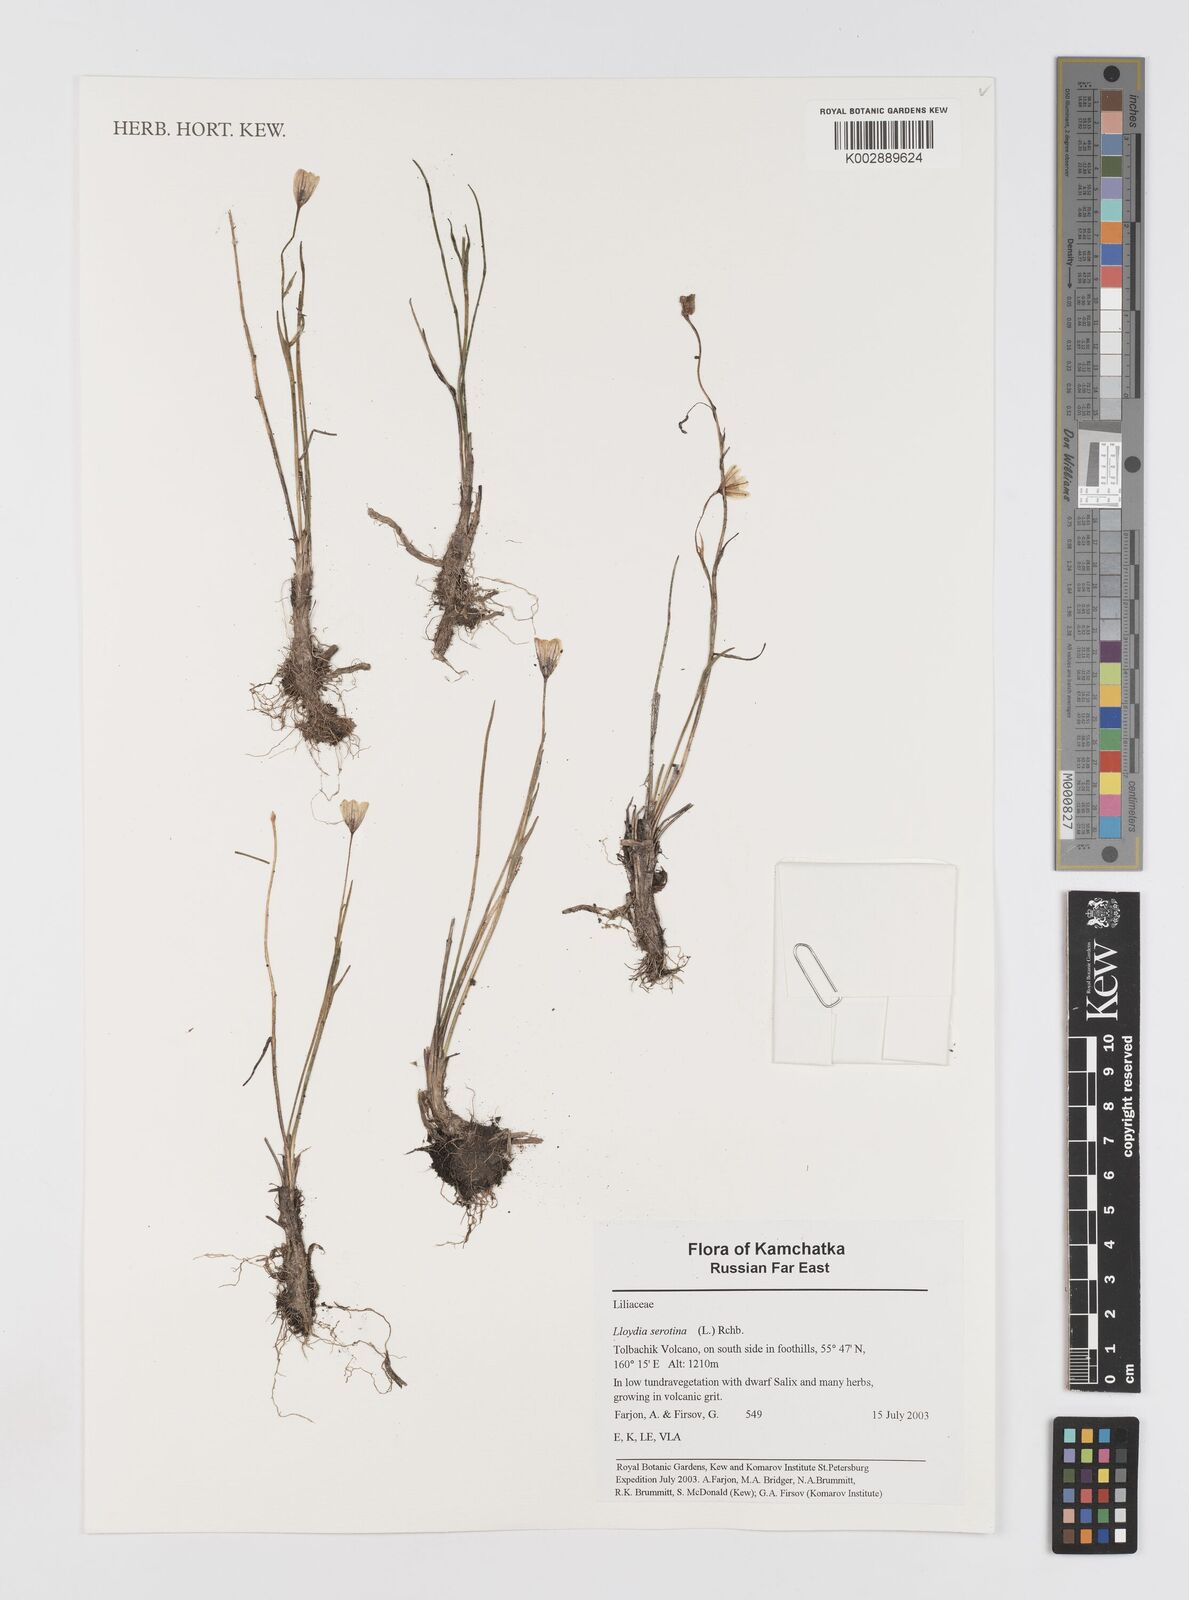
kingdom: Plantae
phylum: Tracheophyta
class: Liliopsida
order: Liliales
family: Liliaceae
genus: Gagea
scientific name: Gagea serotina
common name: Snowdon lily
